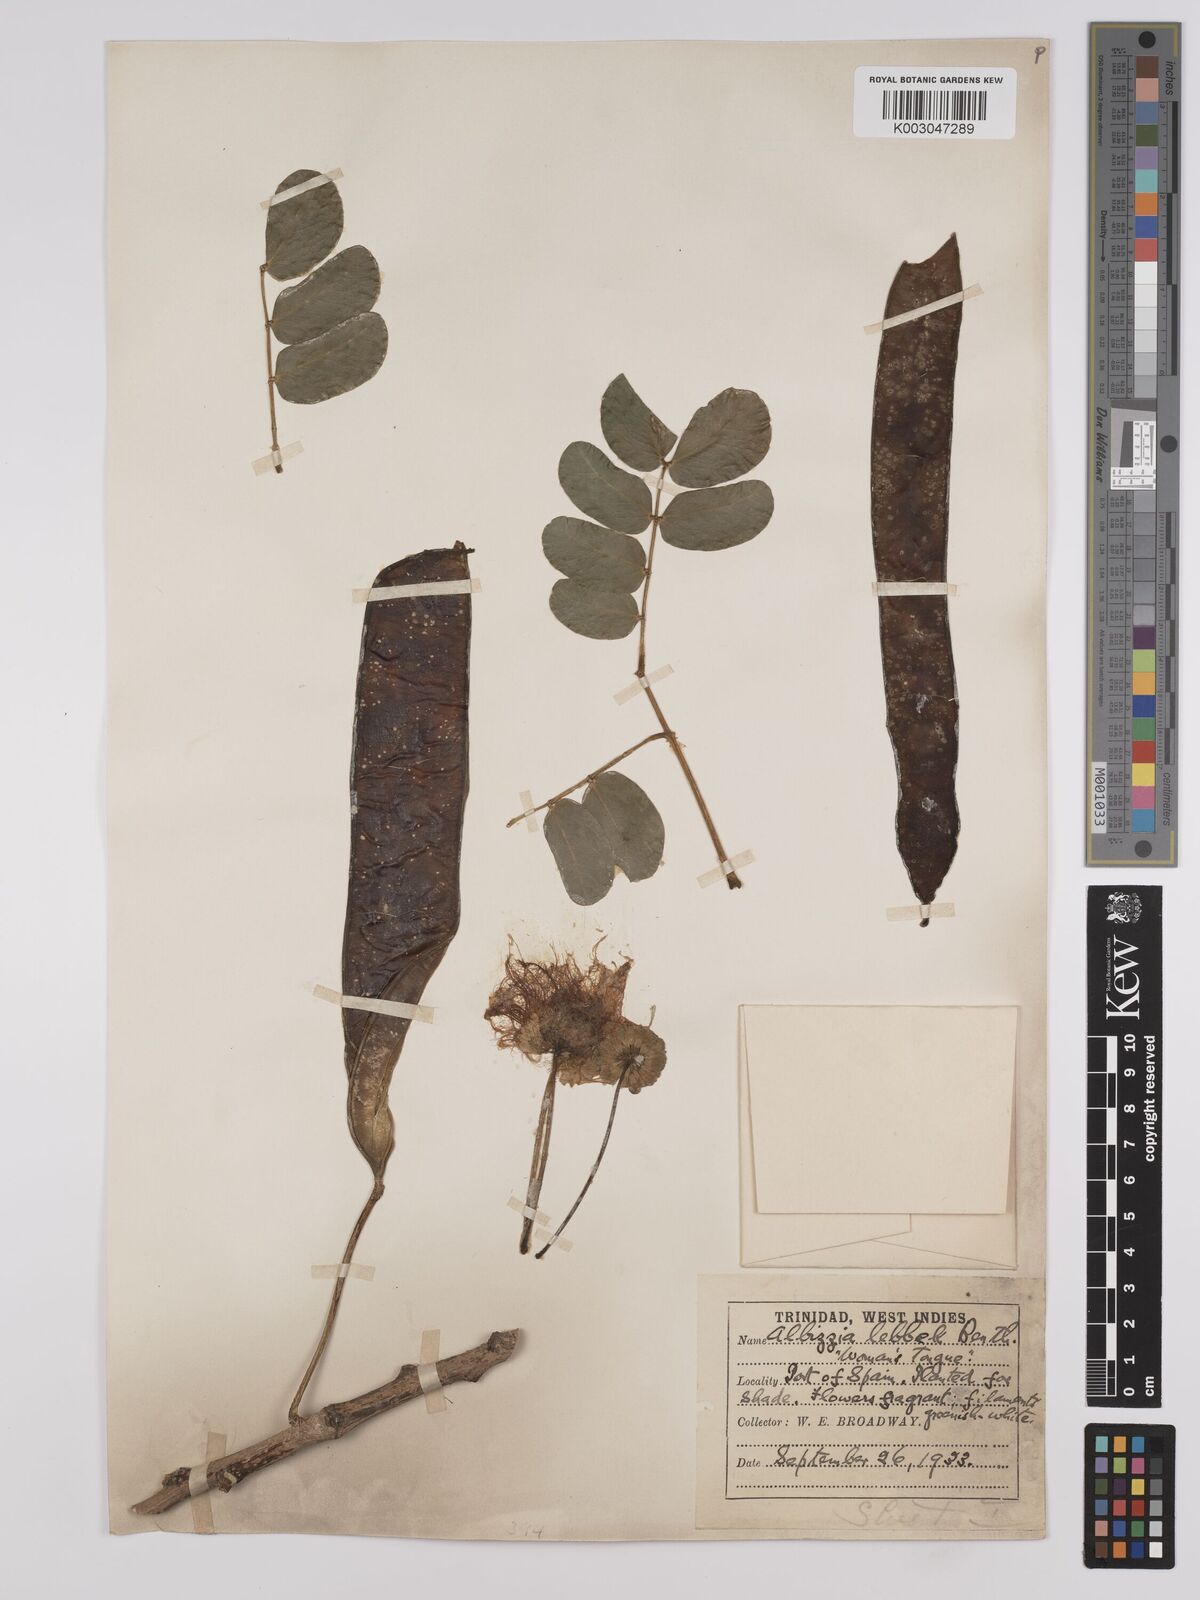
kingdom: Plantae
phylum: Tracheophyta
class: Magnoliopsida
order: Fabales
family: Fabaceae
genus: Albizia
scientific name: Albizia lebbeck
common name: Woman's tongue
